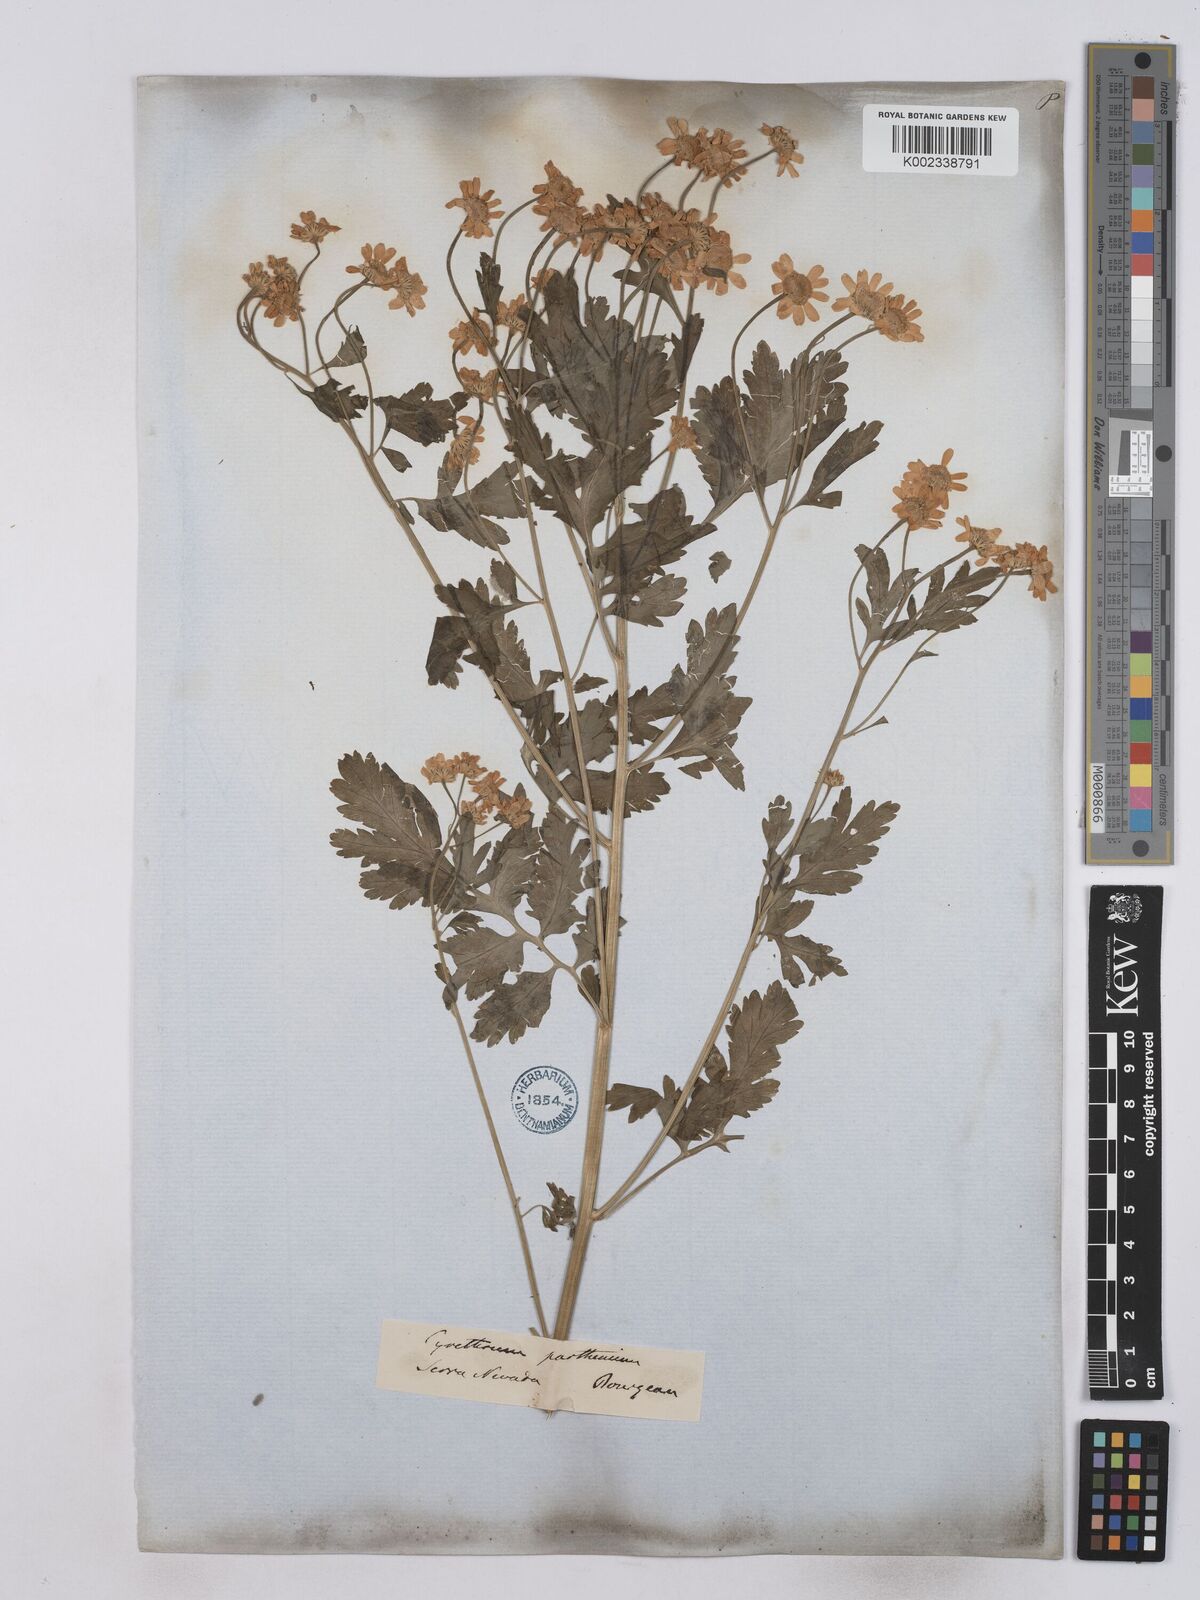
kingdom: Plantae
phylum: Tracheophyta
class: Magnoliopsida
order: Asterales
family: Asteraceae
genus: Tanacetum
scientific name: Tanacetum parthenium
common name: Feverfew
